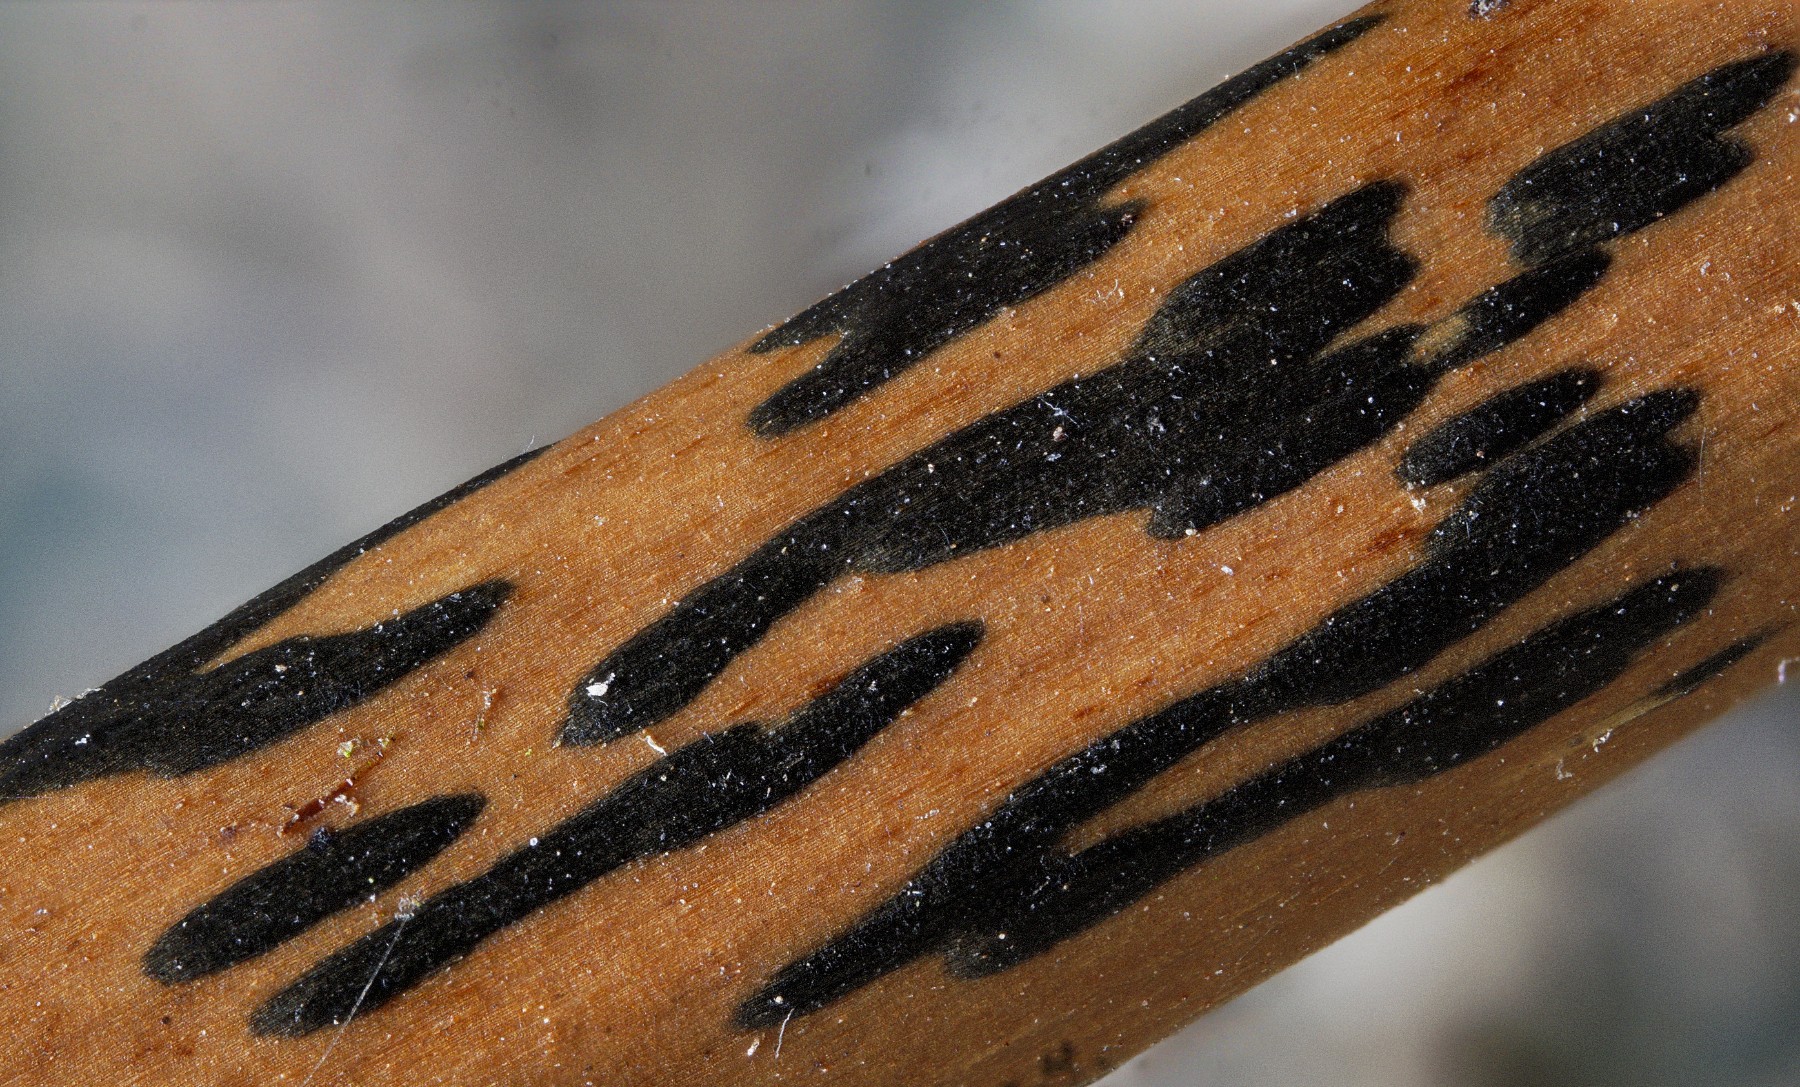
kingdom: Fungi
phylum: Ascomycota
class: Dothideomycetes
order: Pleosporales
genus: Rhopographus
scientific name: Rhopographus filicinus
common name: Bracken map
